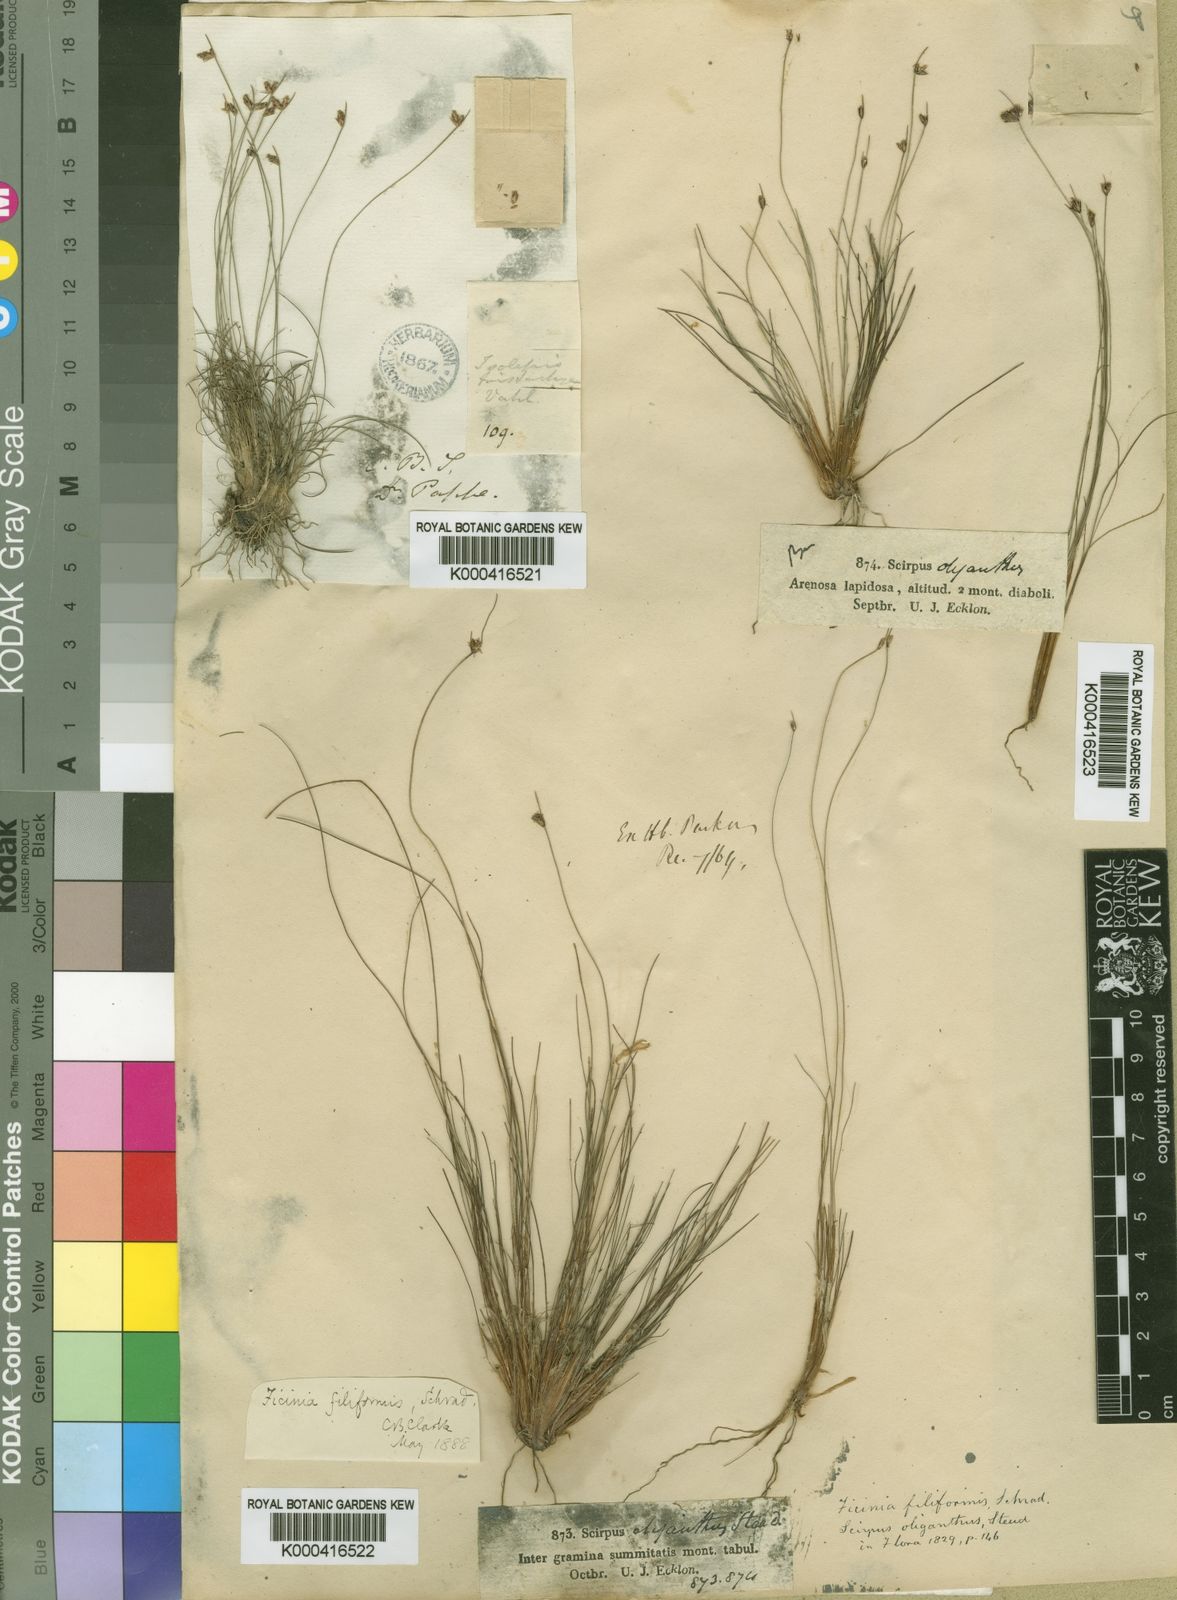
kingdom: Plantae
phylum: Tracheophyta
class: Liliopsida
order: Poales
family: Cyperaceae
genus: Ficinia
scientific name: Ficinia oligantha
